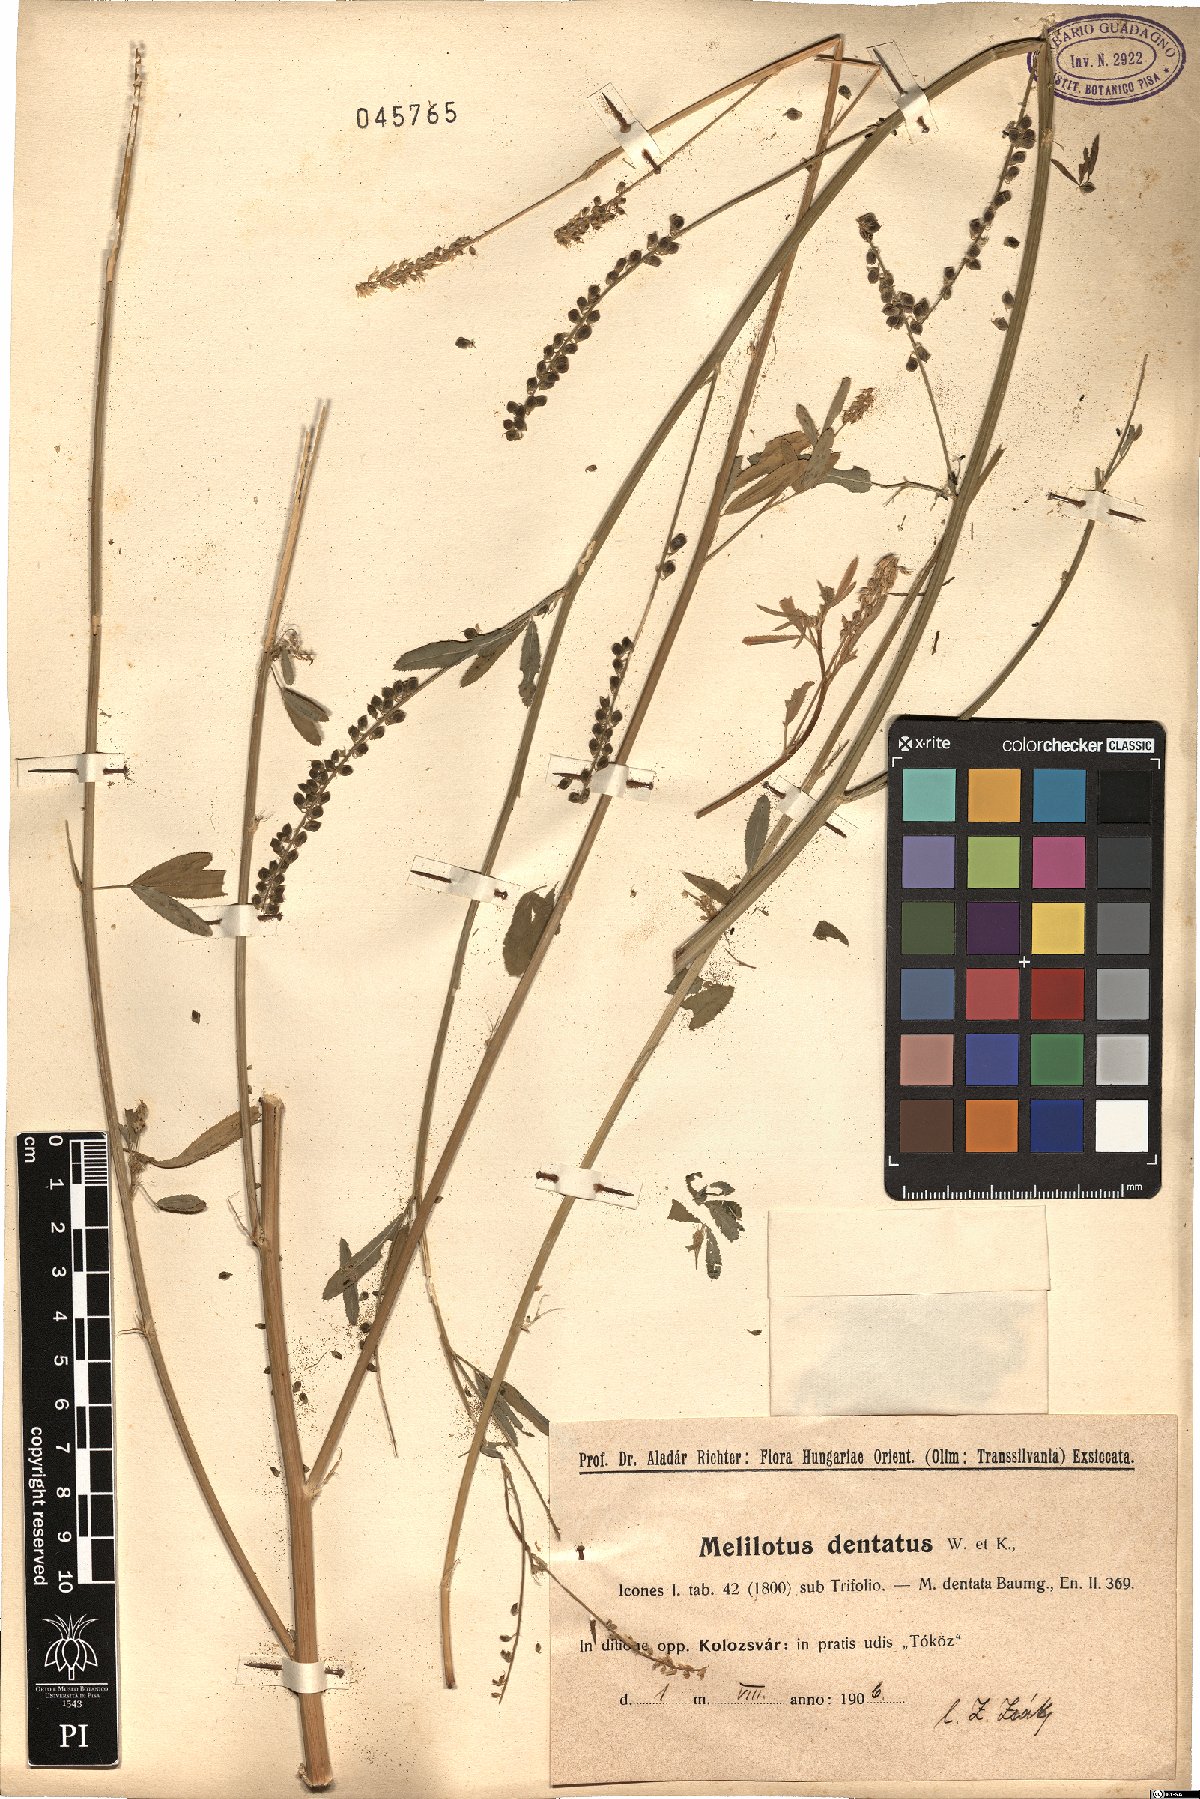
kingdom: Plantae
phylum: Tracheophyta
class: Magnoliopsida
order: Fabales
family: Fabaceae
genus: Melilotus
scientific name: Melilotus dentatus
